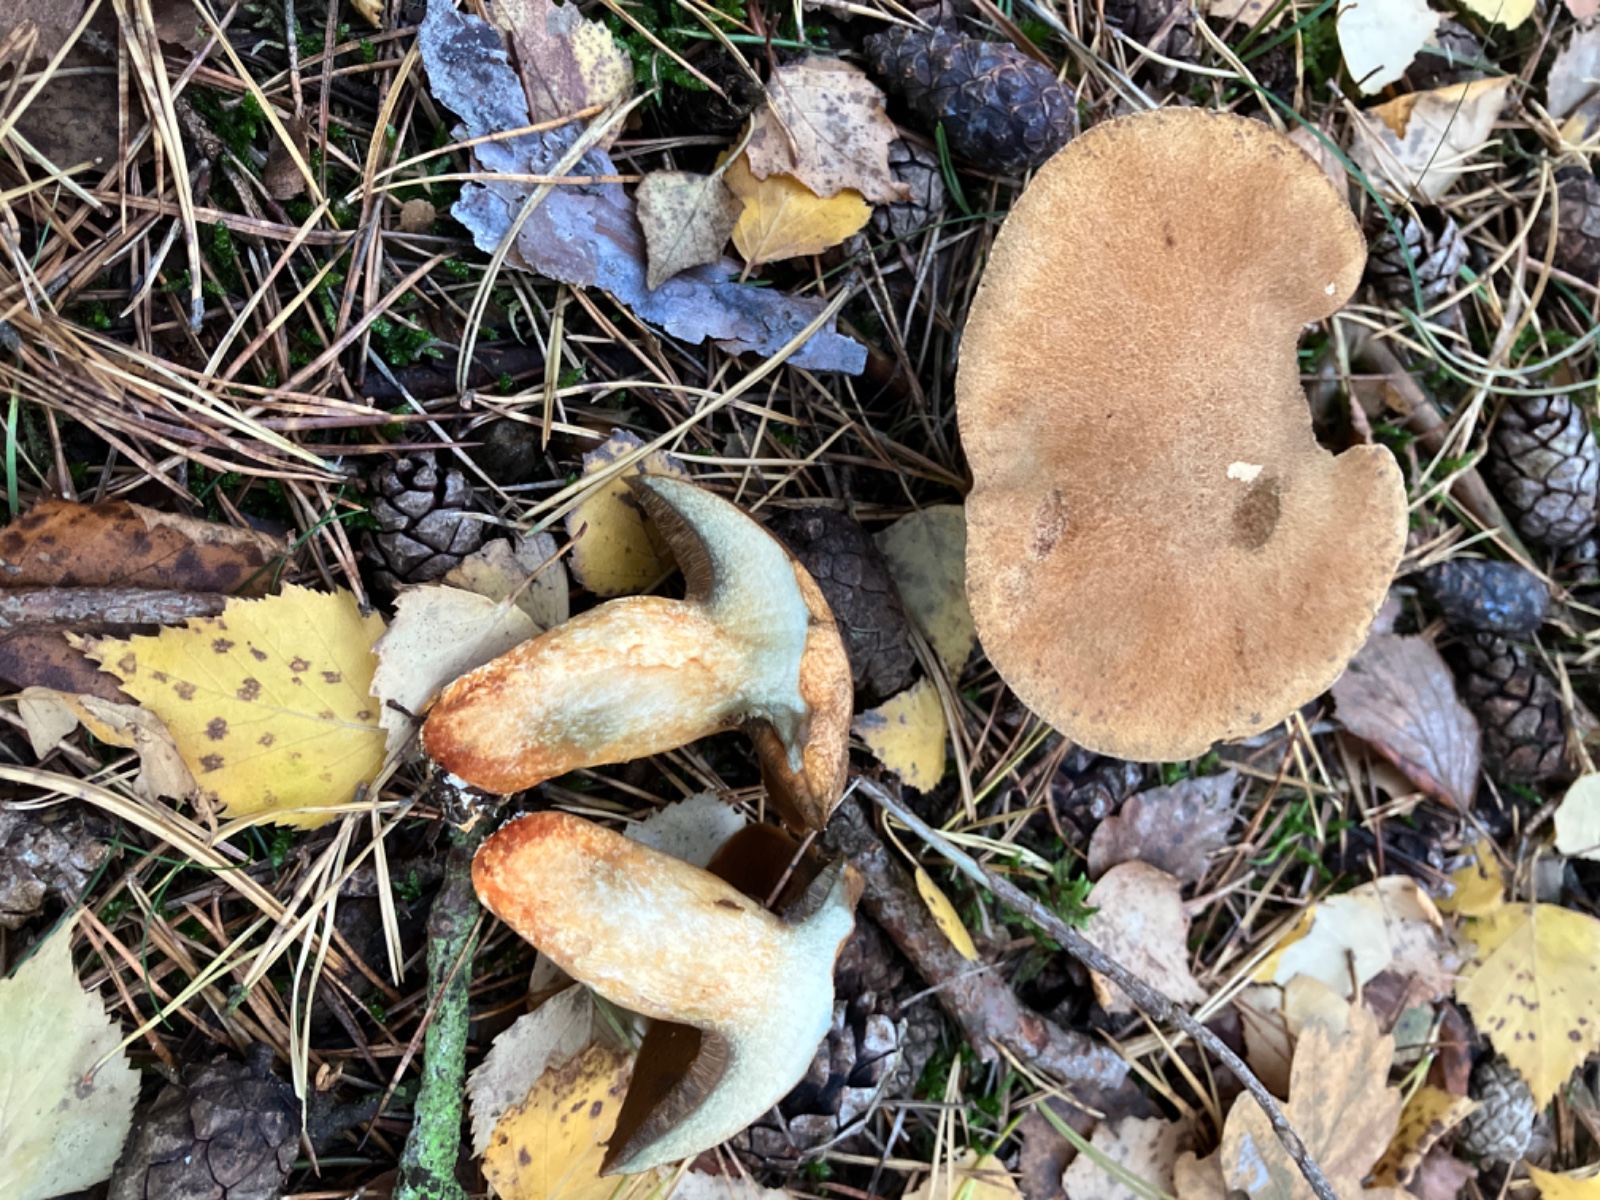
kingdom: Fungi
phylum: Basidiomycota
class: Agaricomycetes
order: Boletales
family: Suillaceae
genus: Suillus
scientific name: Suillus variegatus
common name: broget slimrørhat
